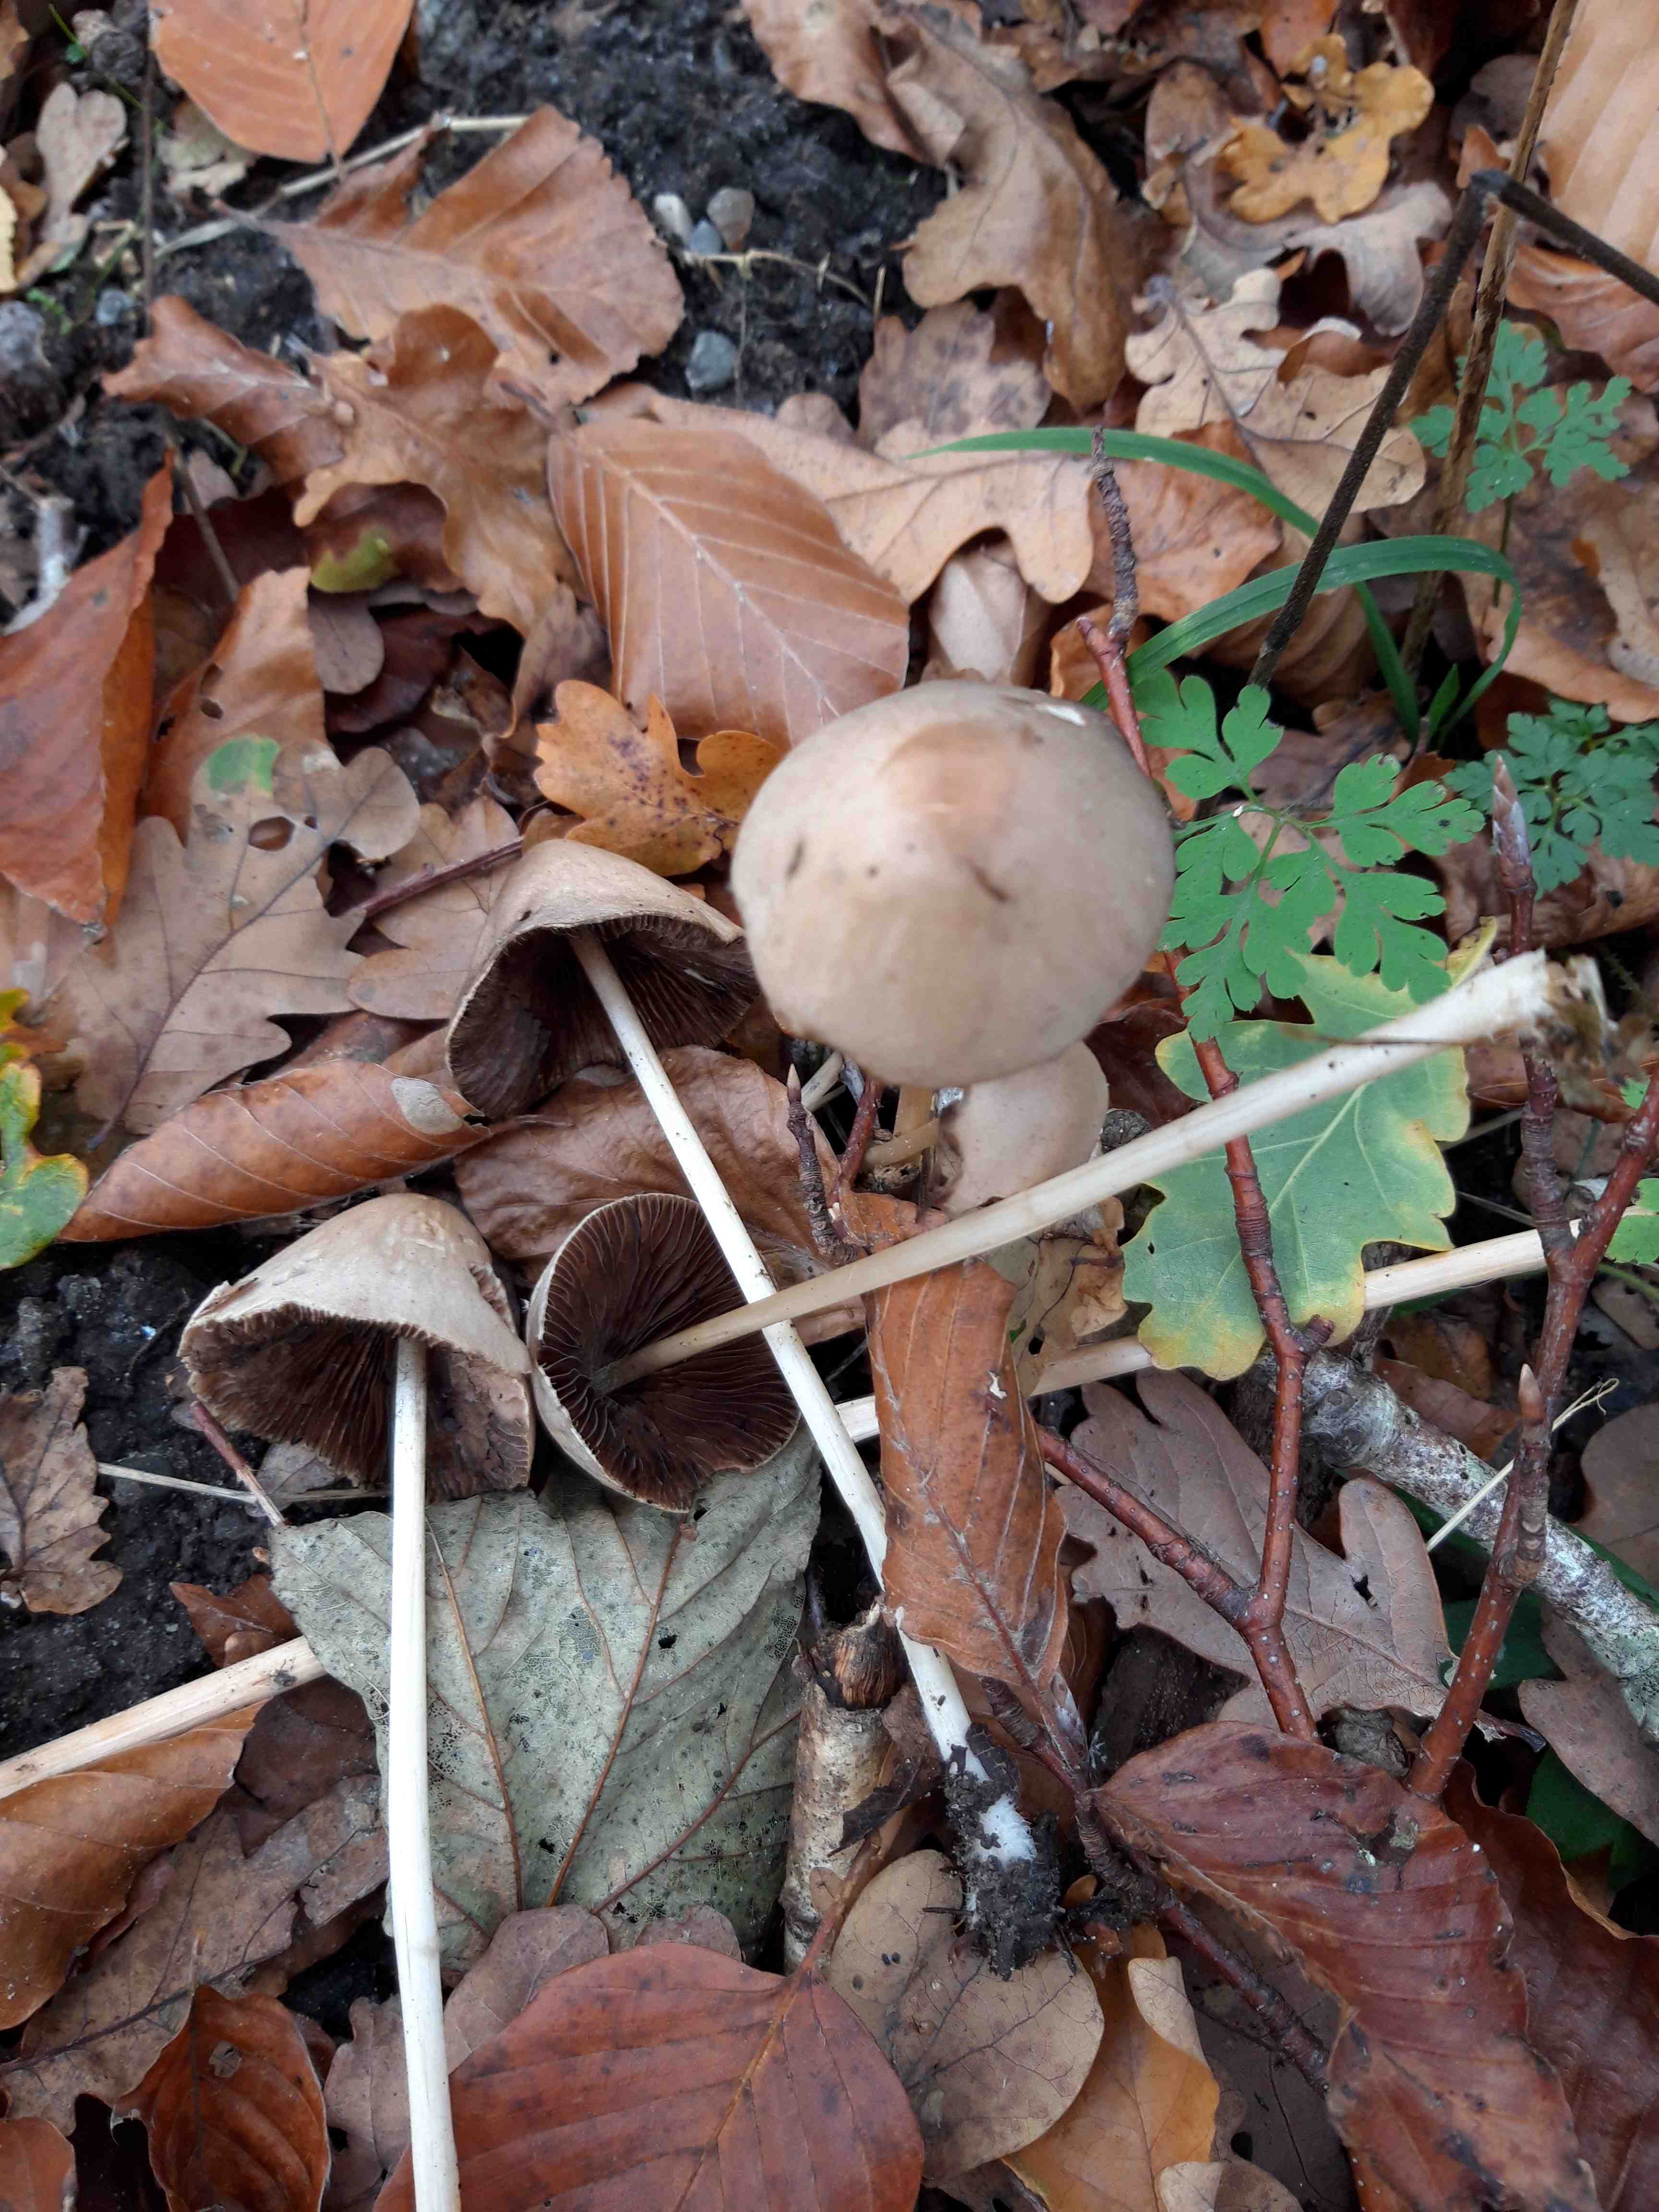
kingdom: Fungi
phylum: Basidiomycota
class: Agaricomycetes
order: Agaricales
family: Psathyrellaceae
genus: Parasola
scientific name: Parasola conopilea
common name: kegle-hjulhat
